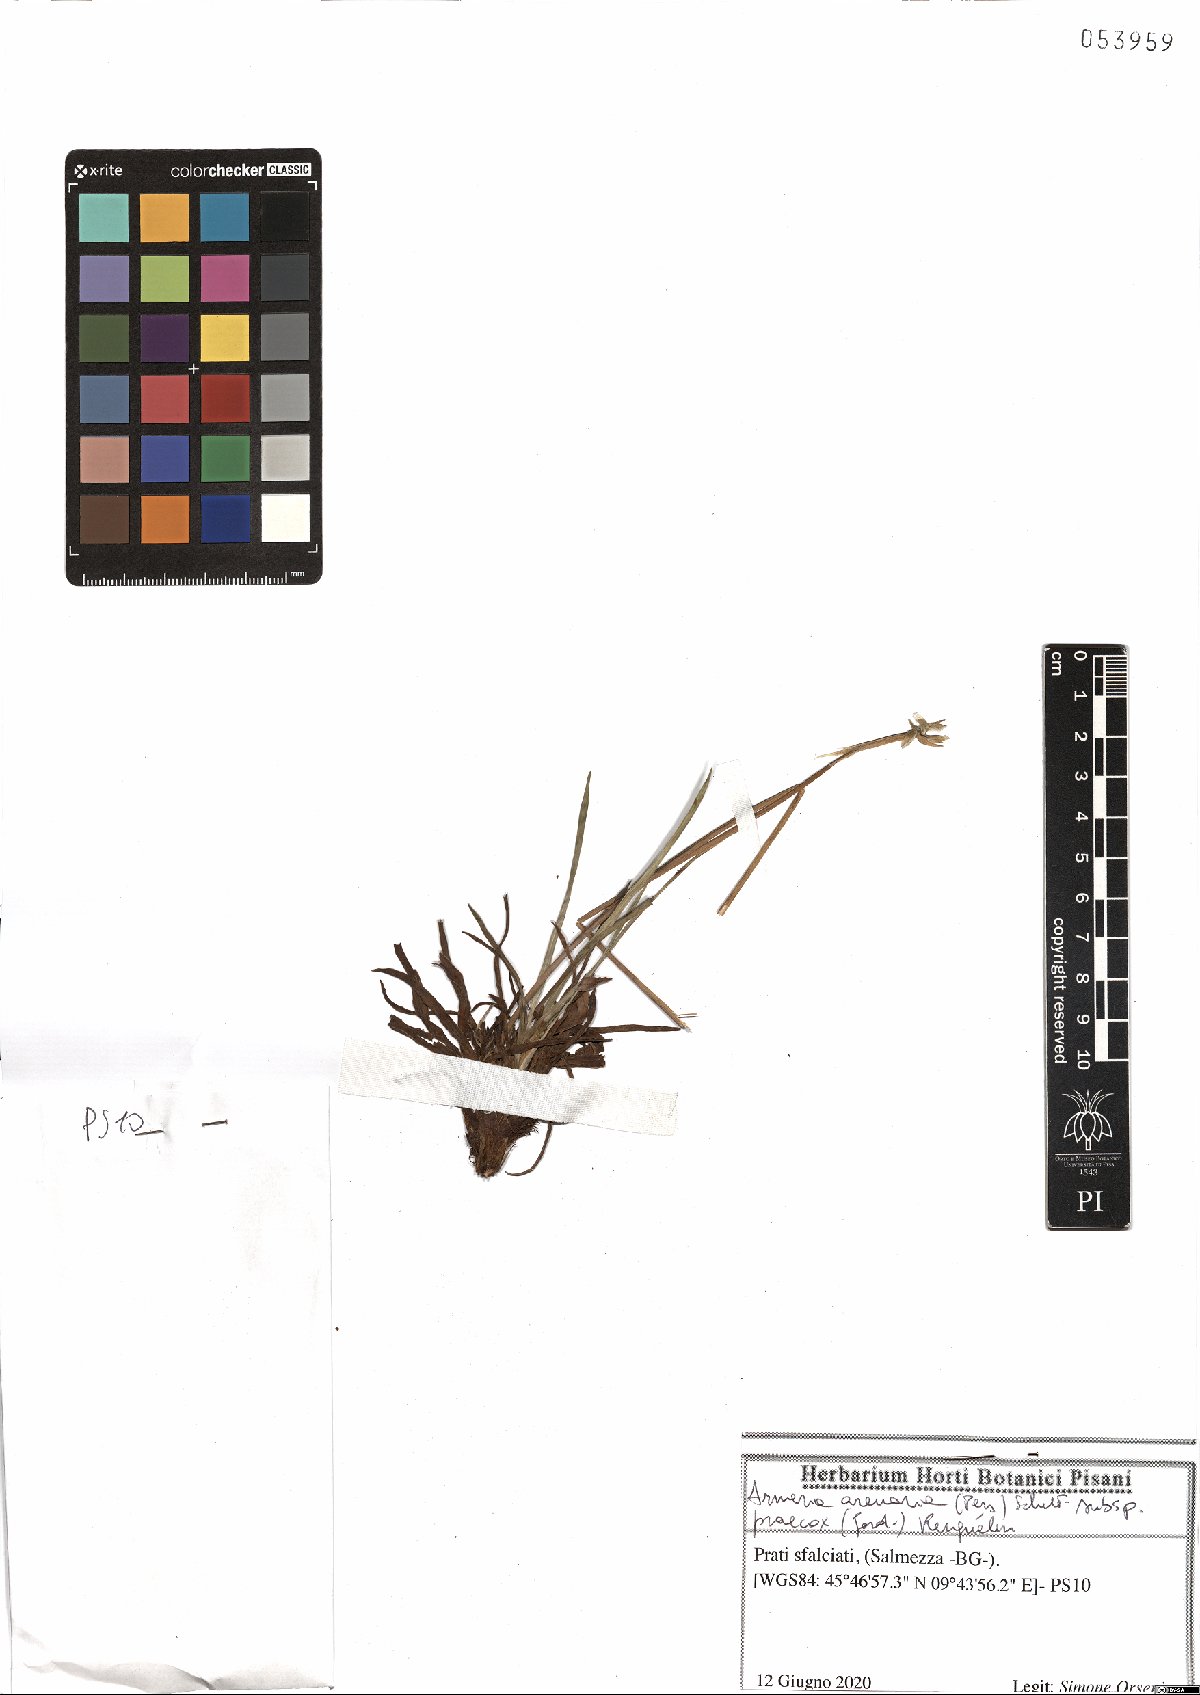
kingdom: Plantae
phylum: Tracheophyta
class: Magnoliopsida
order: Caryophyllales
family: Plumbaginaceae
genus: Armeria
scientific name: Armeria arenaria
